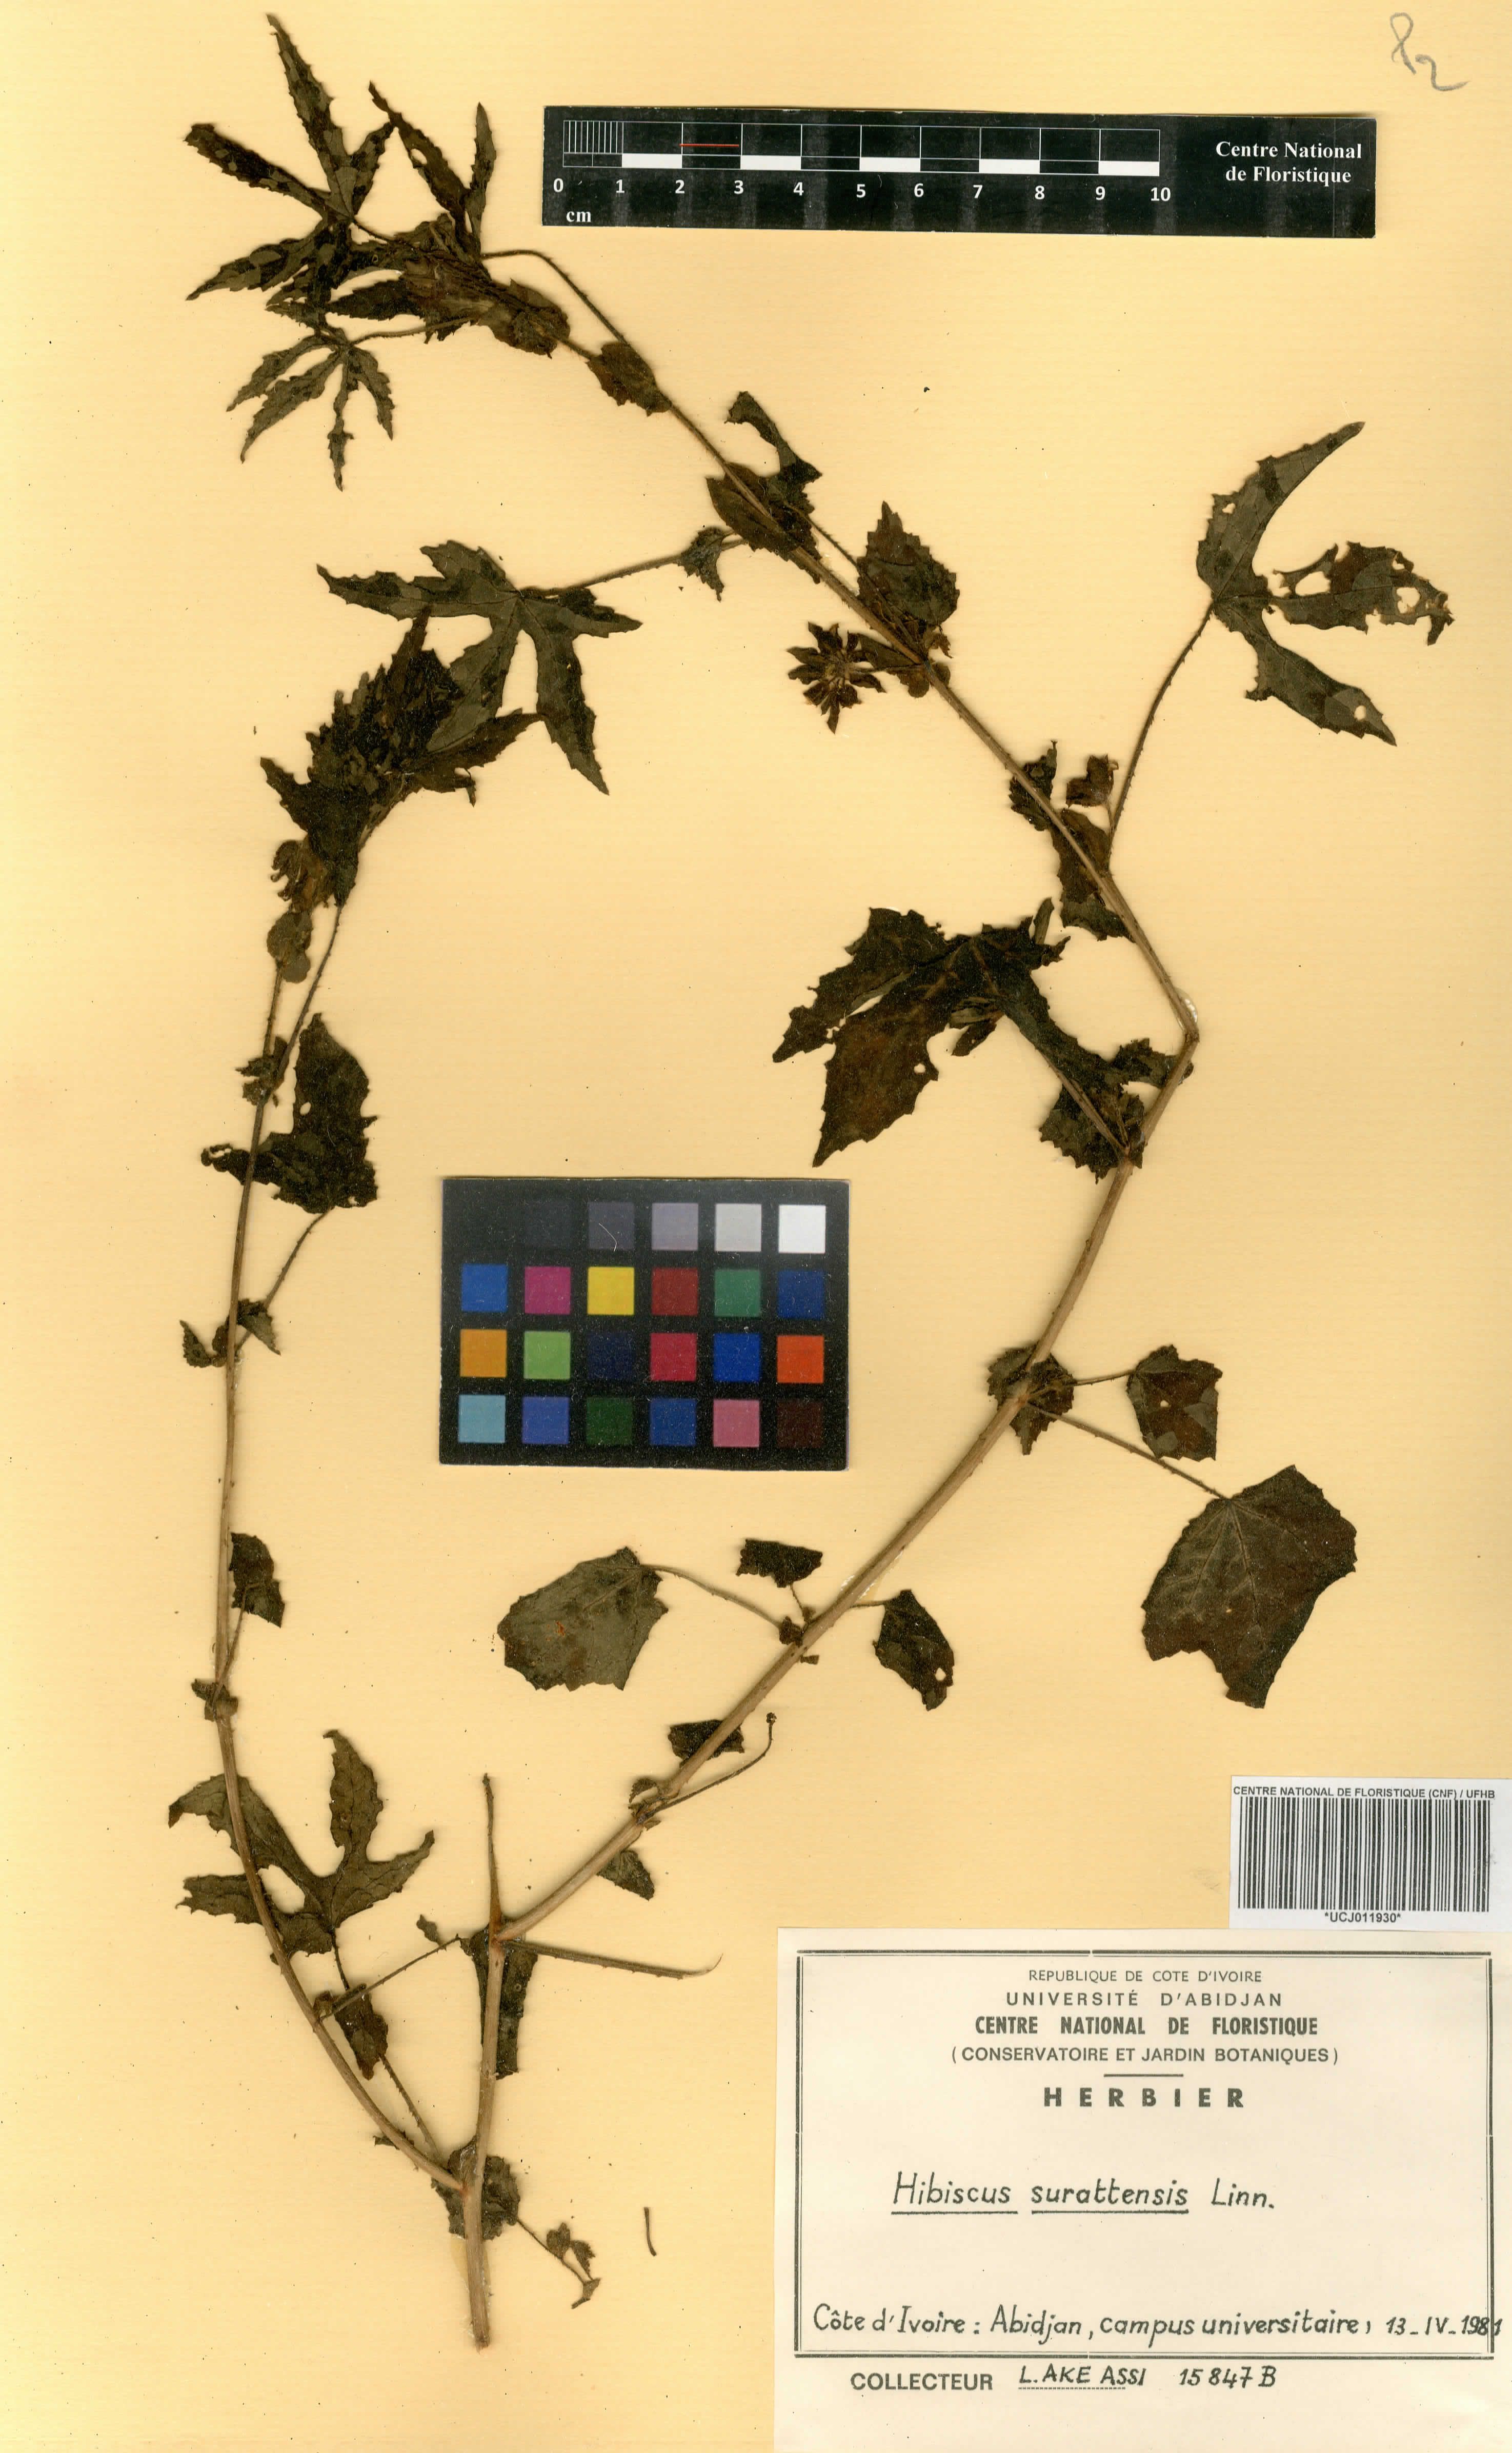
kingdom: Plantae
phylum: Tracheophyta
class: Magnoliopsida
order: Malvales
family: Malvaceae
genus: Hibiscus
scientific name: Hibiscus surattensis
